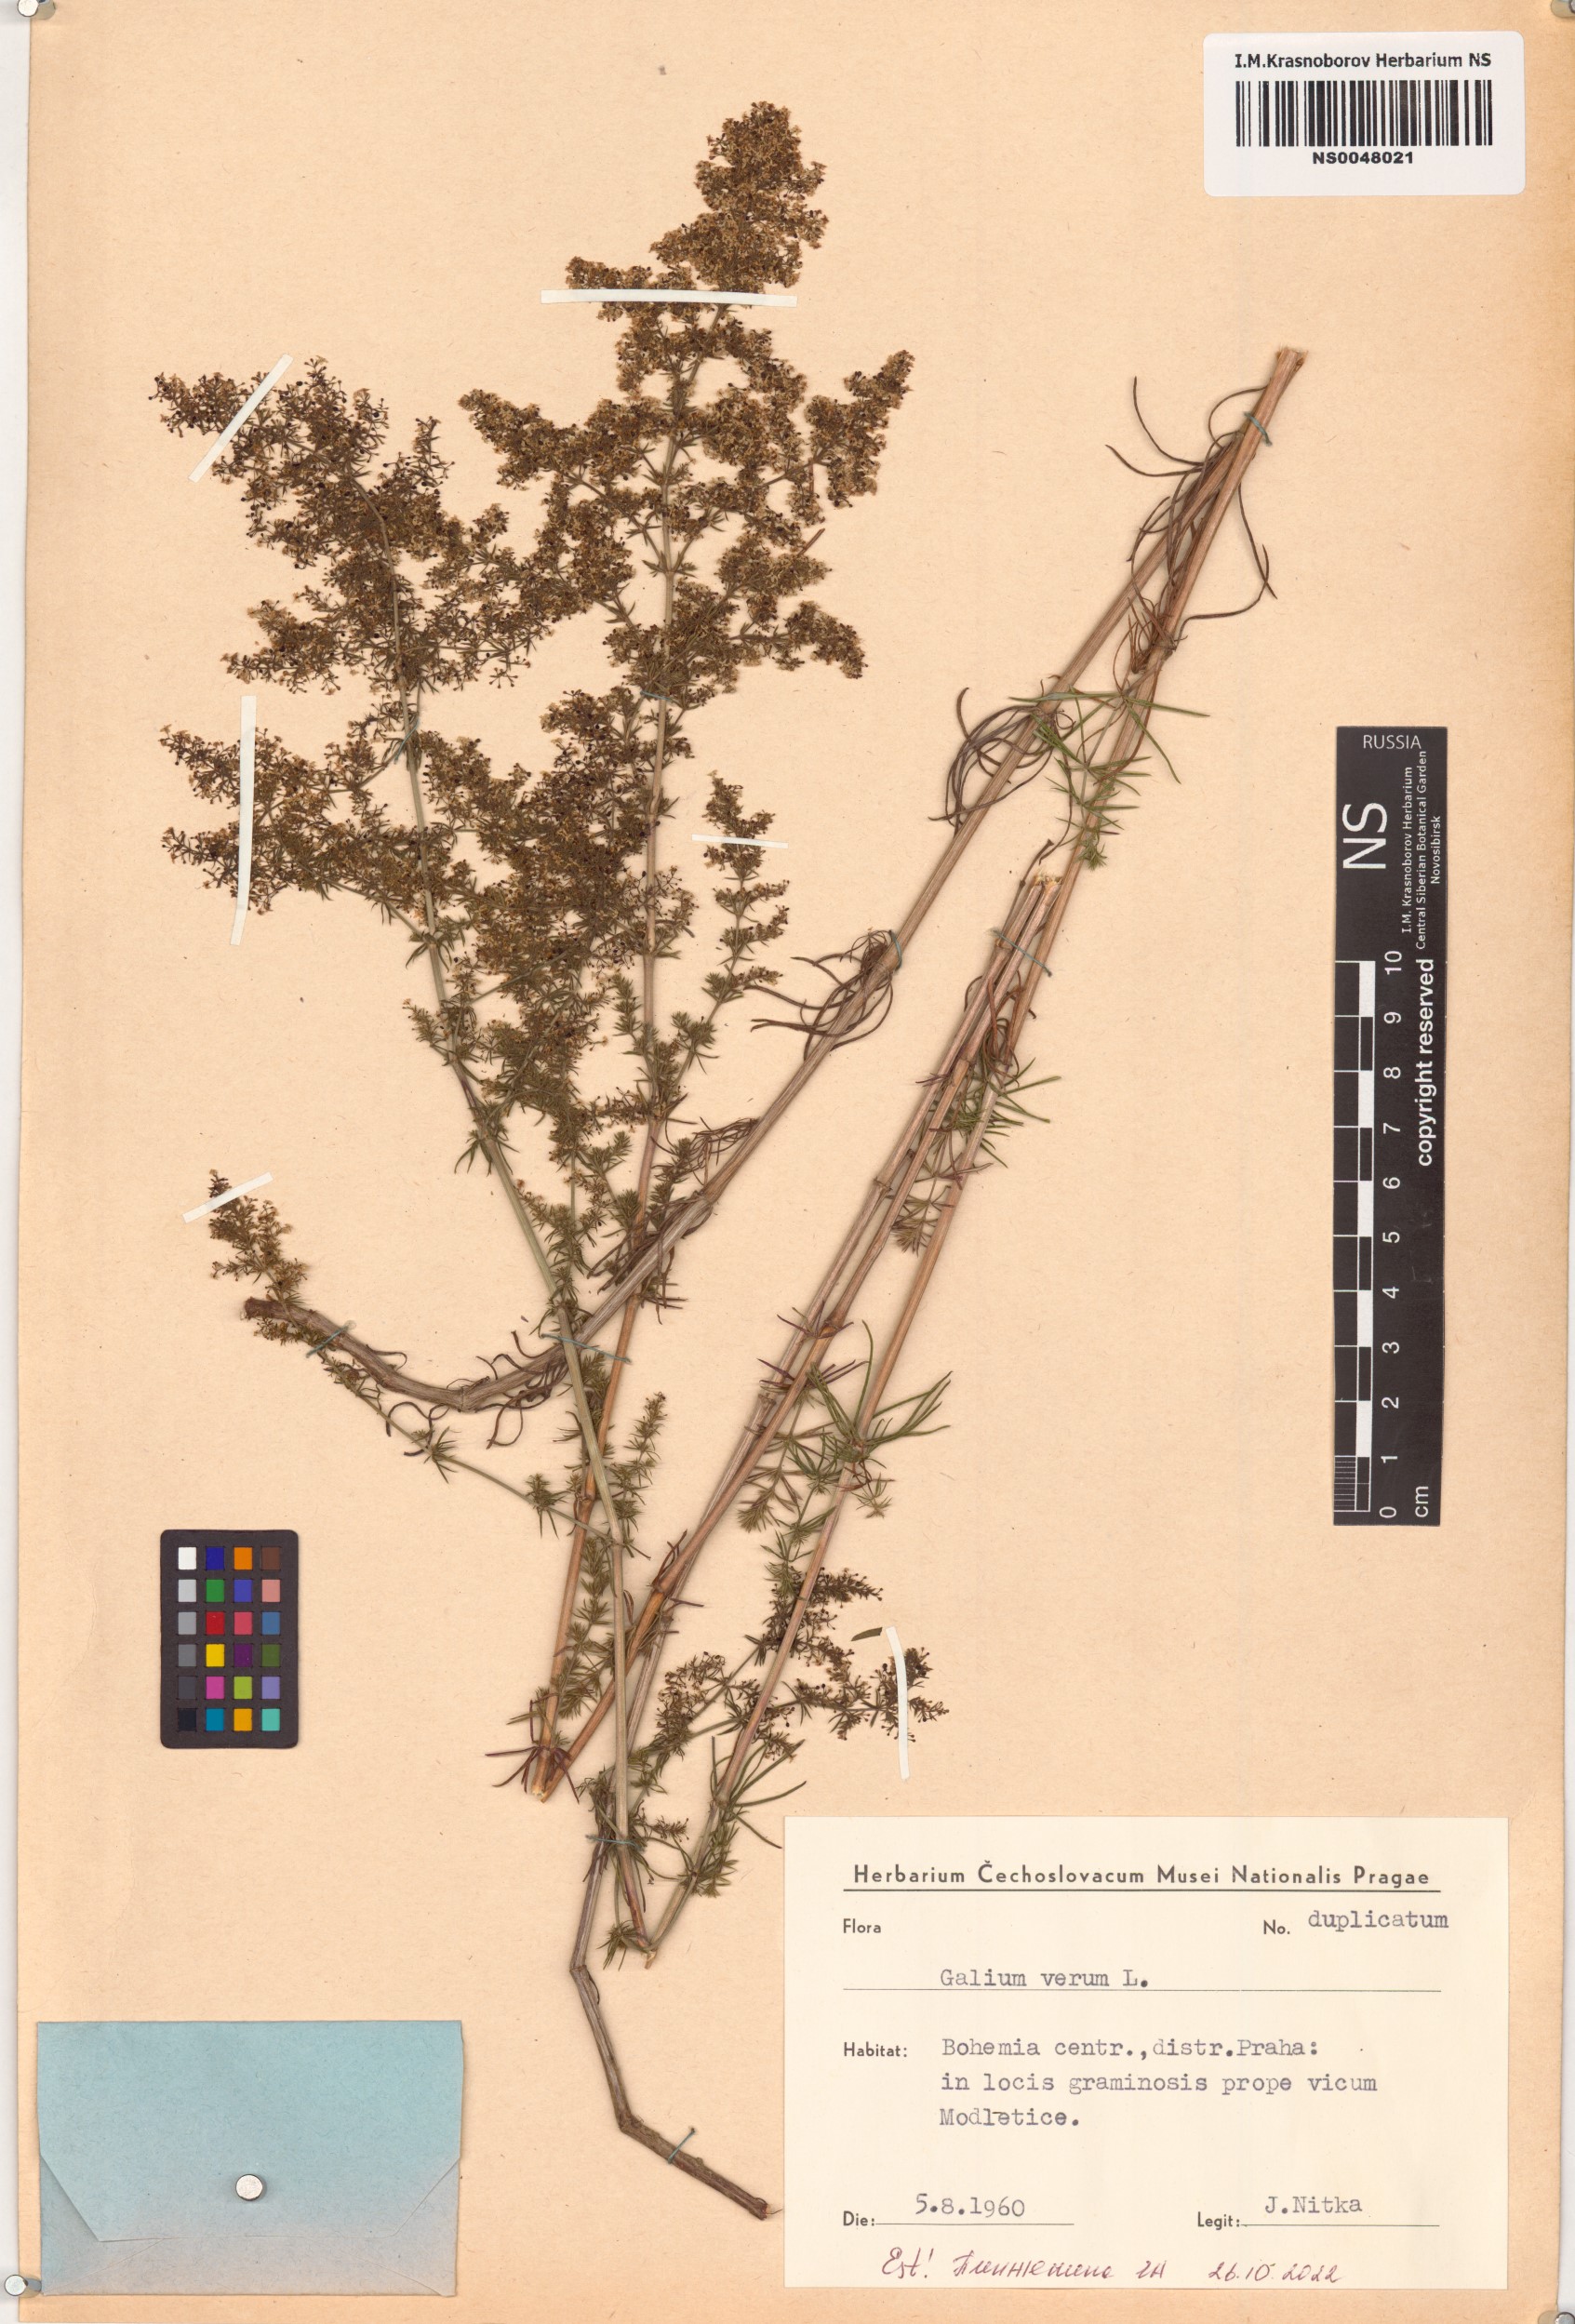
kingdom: Plantae
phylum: Tracheophyta
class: Magnoliopsida
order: Gentianales
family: Rubiaceae
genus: Galium
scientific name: Galium verum
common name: Lady's bedstraw
